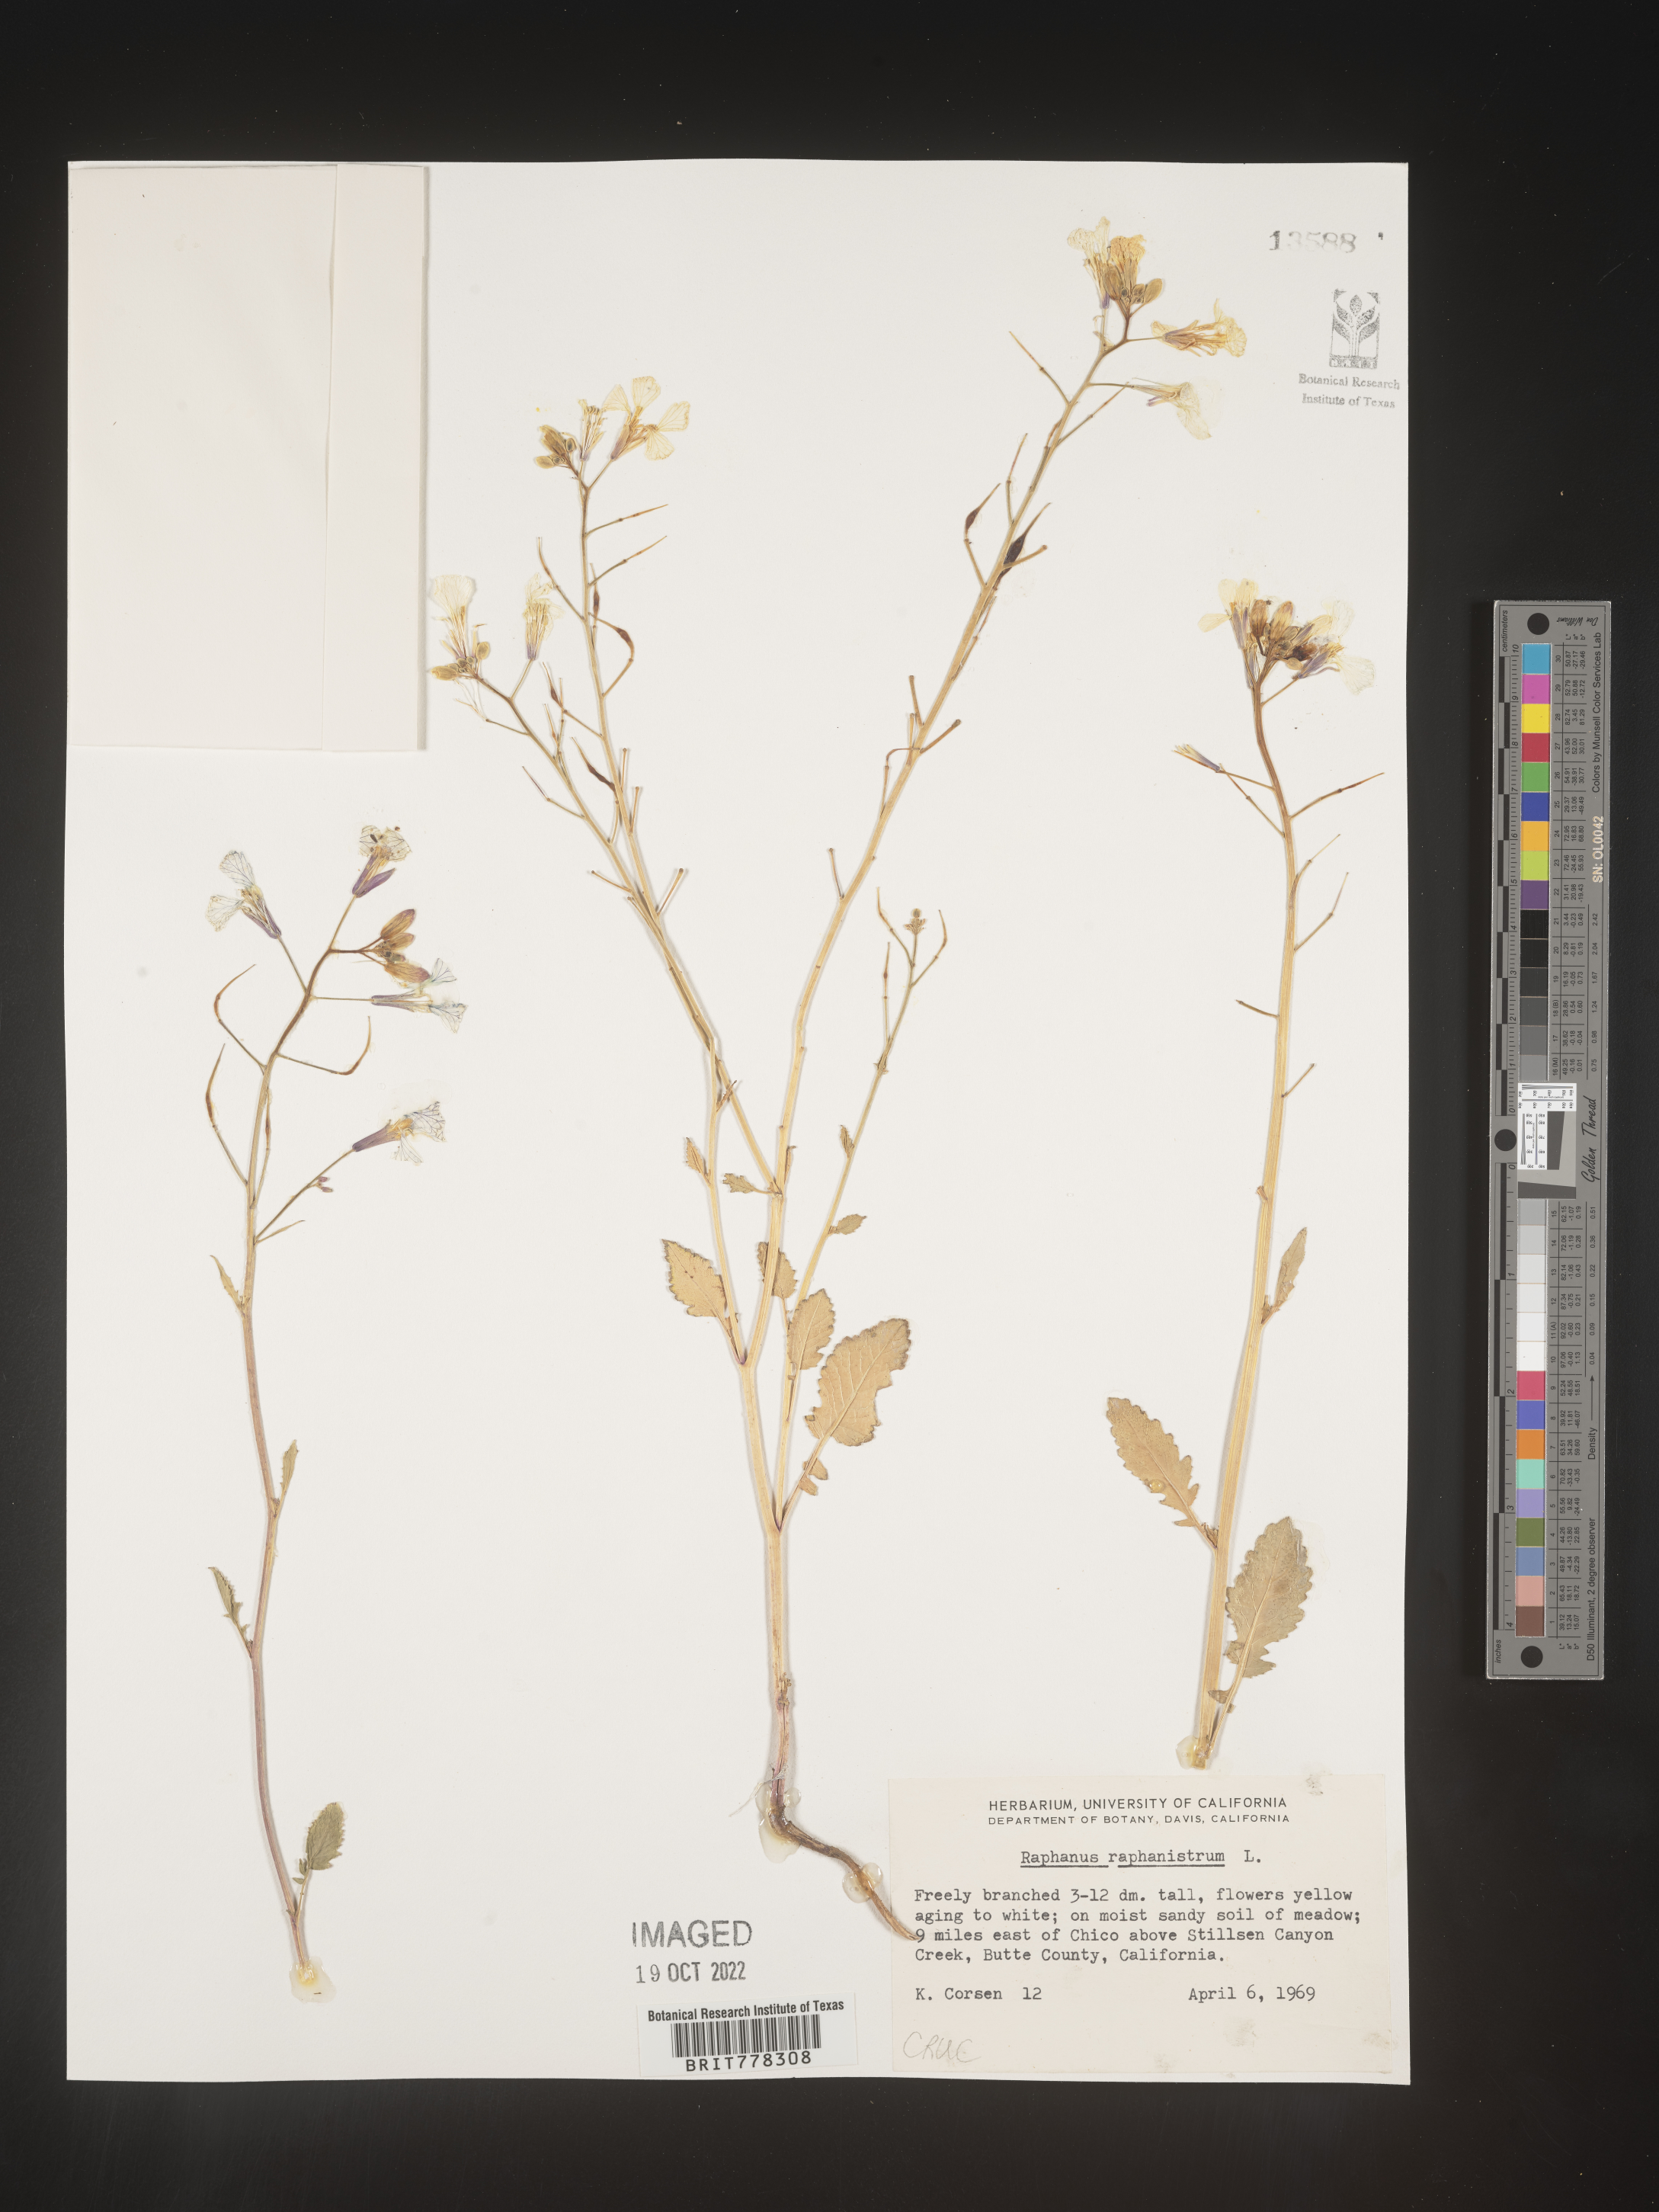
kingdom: Plantae
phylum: Tracheophyta
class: Magnoliopsida
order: Brassicales
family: Brassicaceae
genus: Raphanus
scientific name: Raphanus raphanistrum
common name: Wild radish
